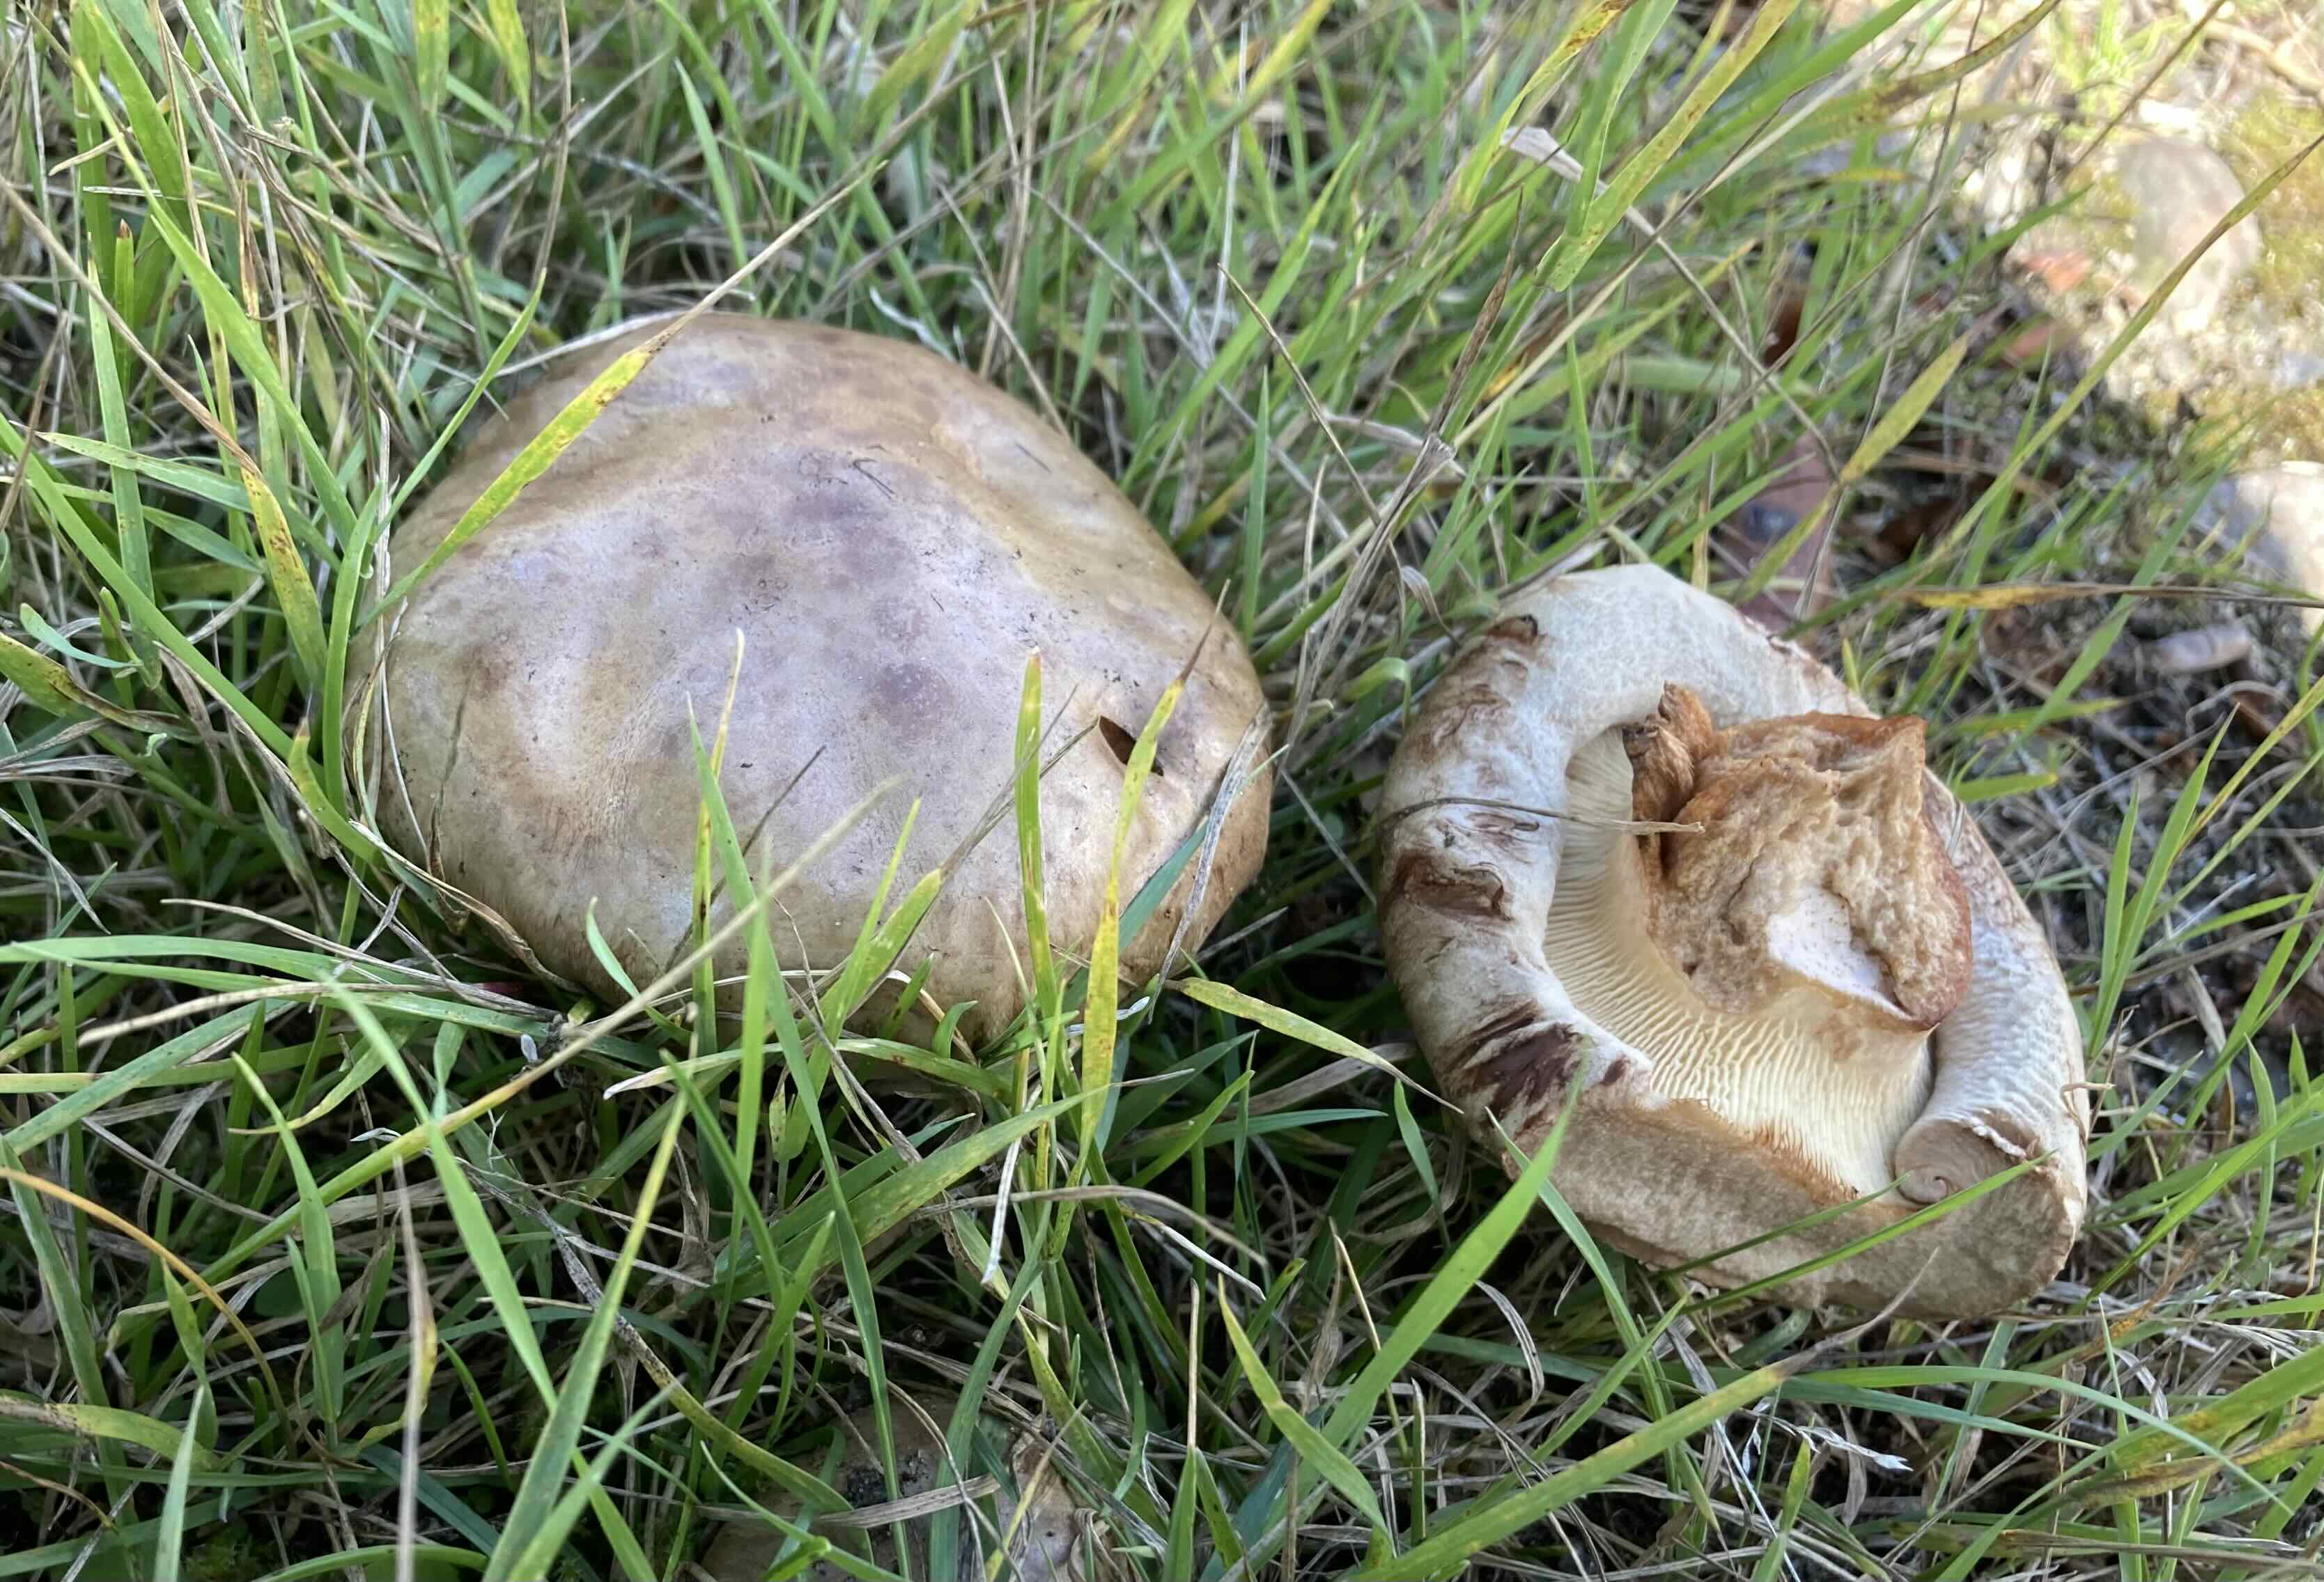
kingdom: Fungi
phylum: Basidiomycota
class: Agaricomycetes
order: Boletales
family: Paxillaceae
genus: Paxillus
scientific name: Paxillus obscurisporus
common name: mahognisporet netbladhat
